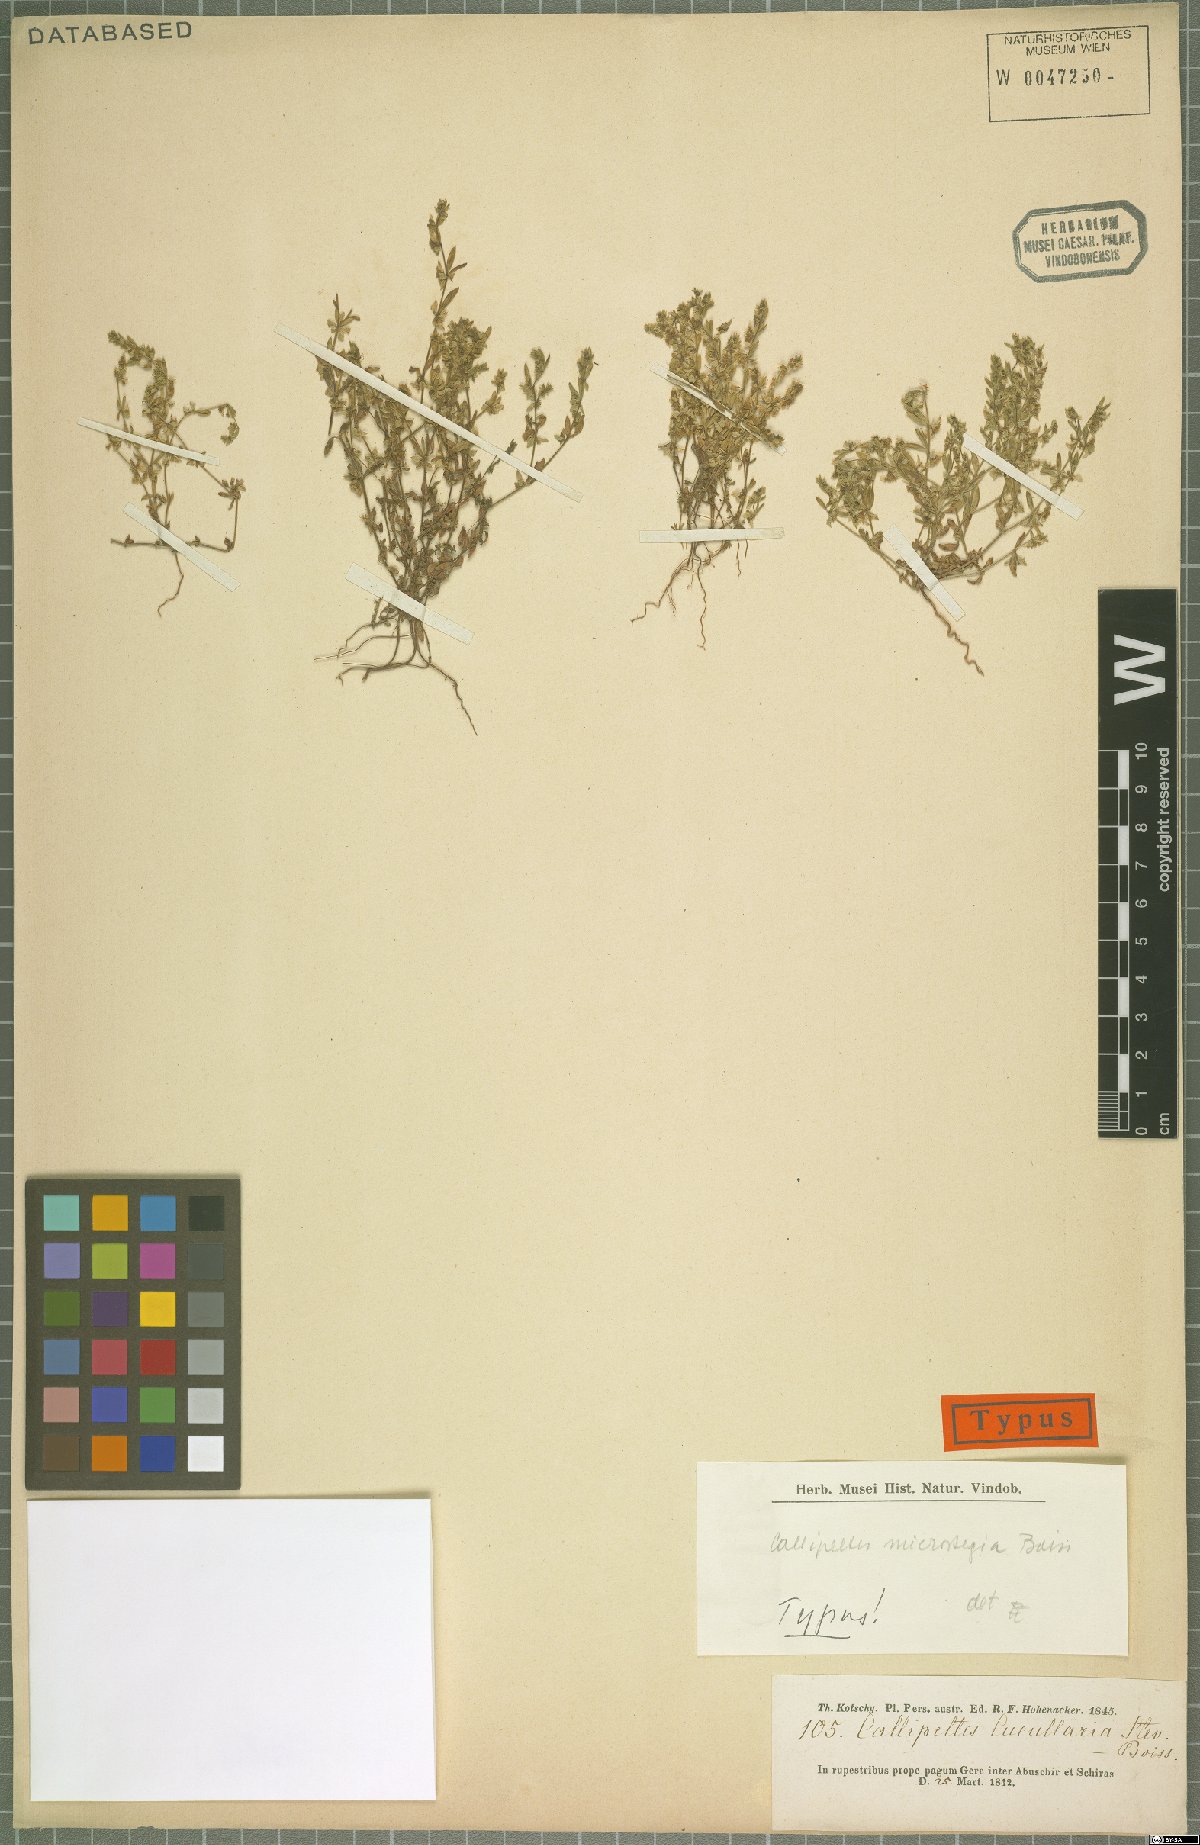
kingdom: Plantae
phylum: Tracheophyta
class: Magnoliopsida
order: Gentianales
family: Rubiaceae
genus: Callipeltis
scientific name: Callipeltis microstegia
